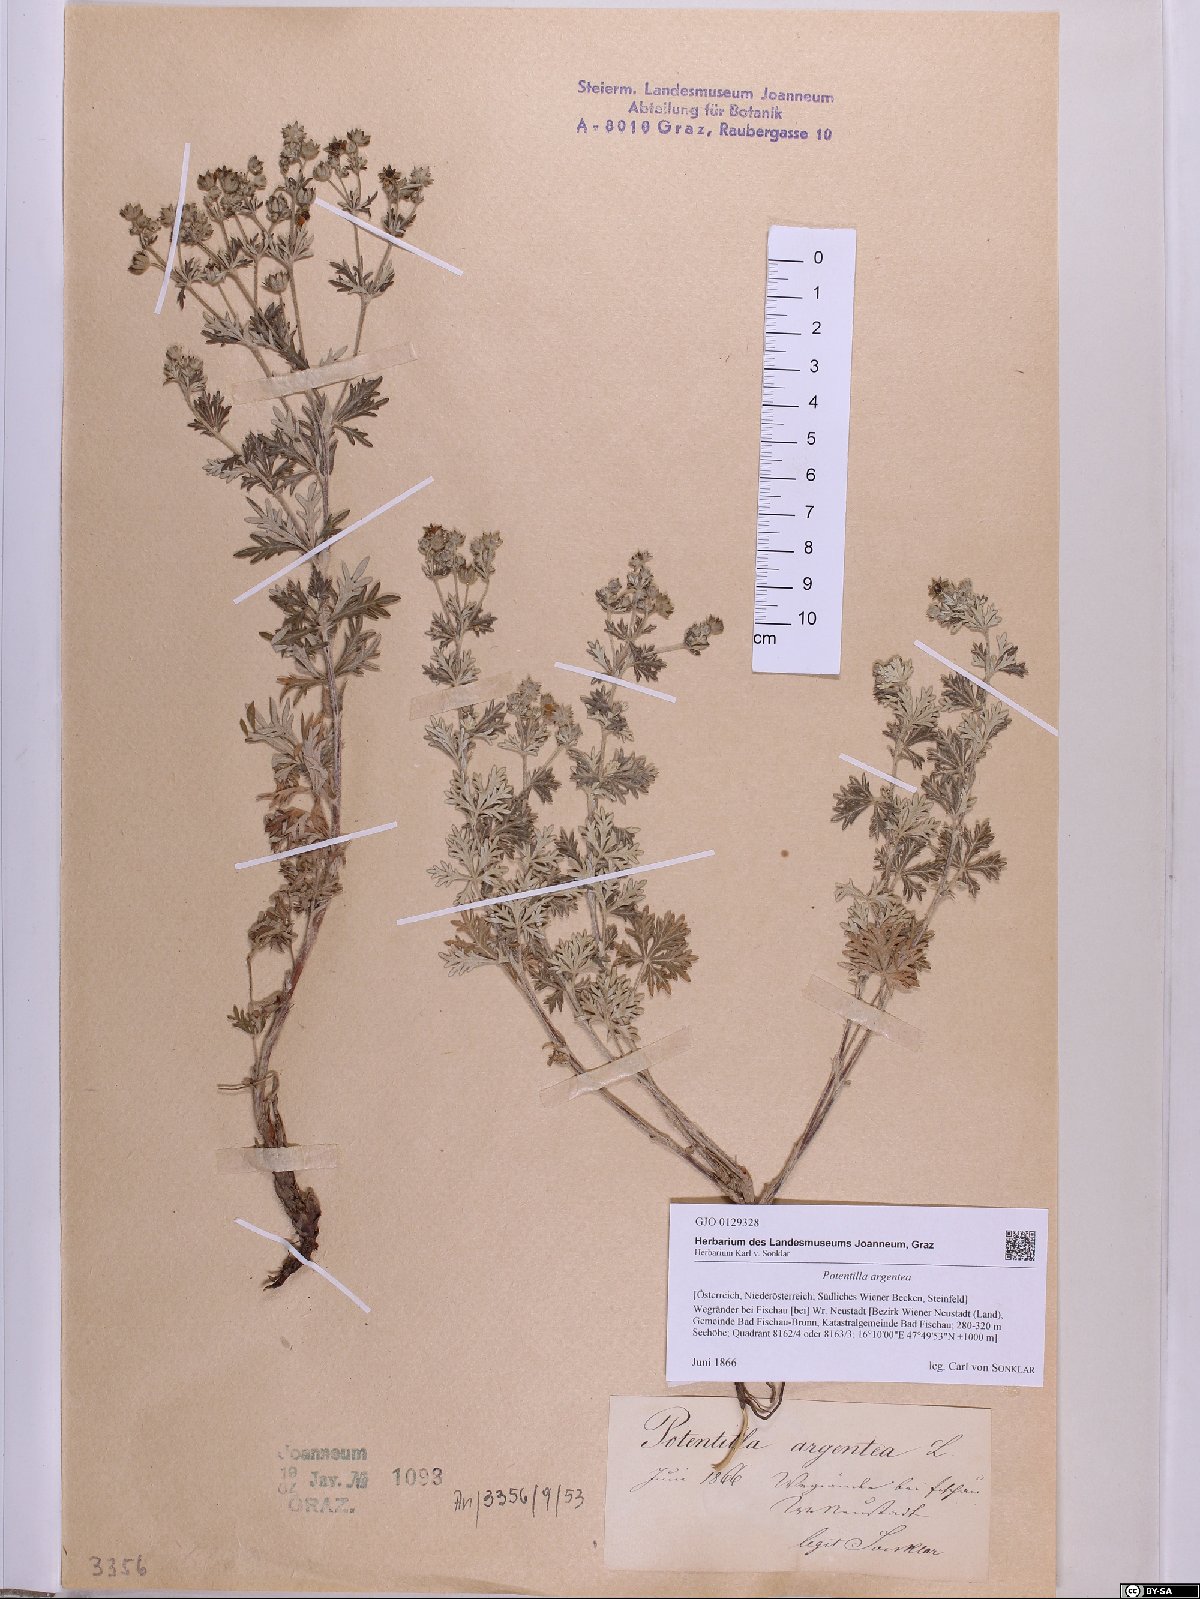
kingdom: Plantae
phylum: Tracheophyta
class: Magnoliopsida
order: Rosales
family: Rosaceae
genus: Potentilla
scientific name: Potentilla argentea
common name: Hoary cinquefoil
